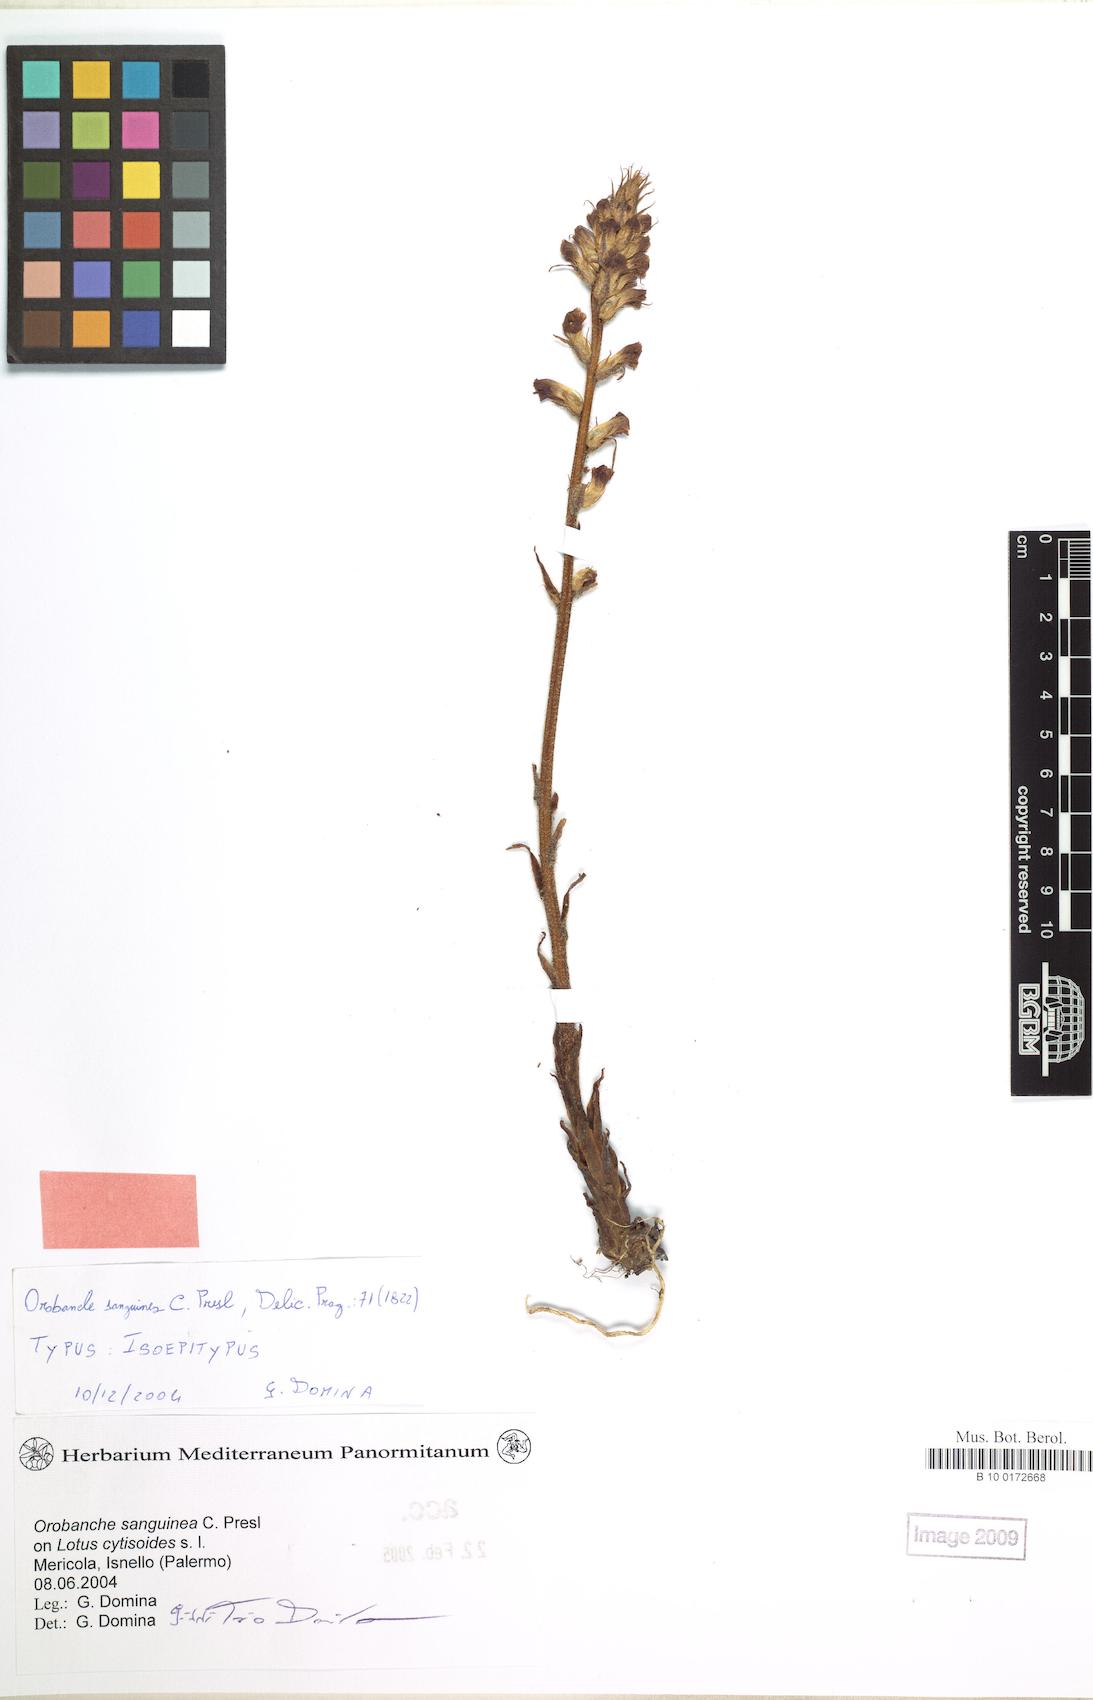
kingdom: Plantae
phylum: Tracheophyta
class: Magnoliopsida
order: Lamiales
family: Orobanchaceae
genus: Orobanche
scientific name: Orobanche sanguinea
